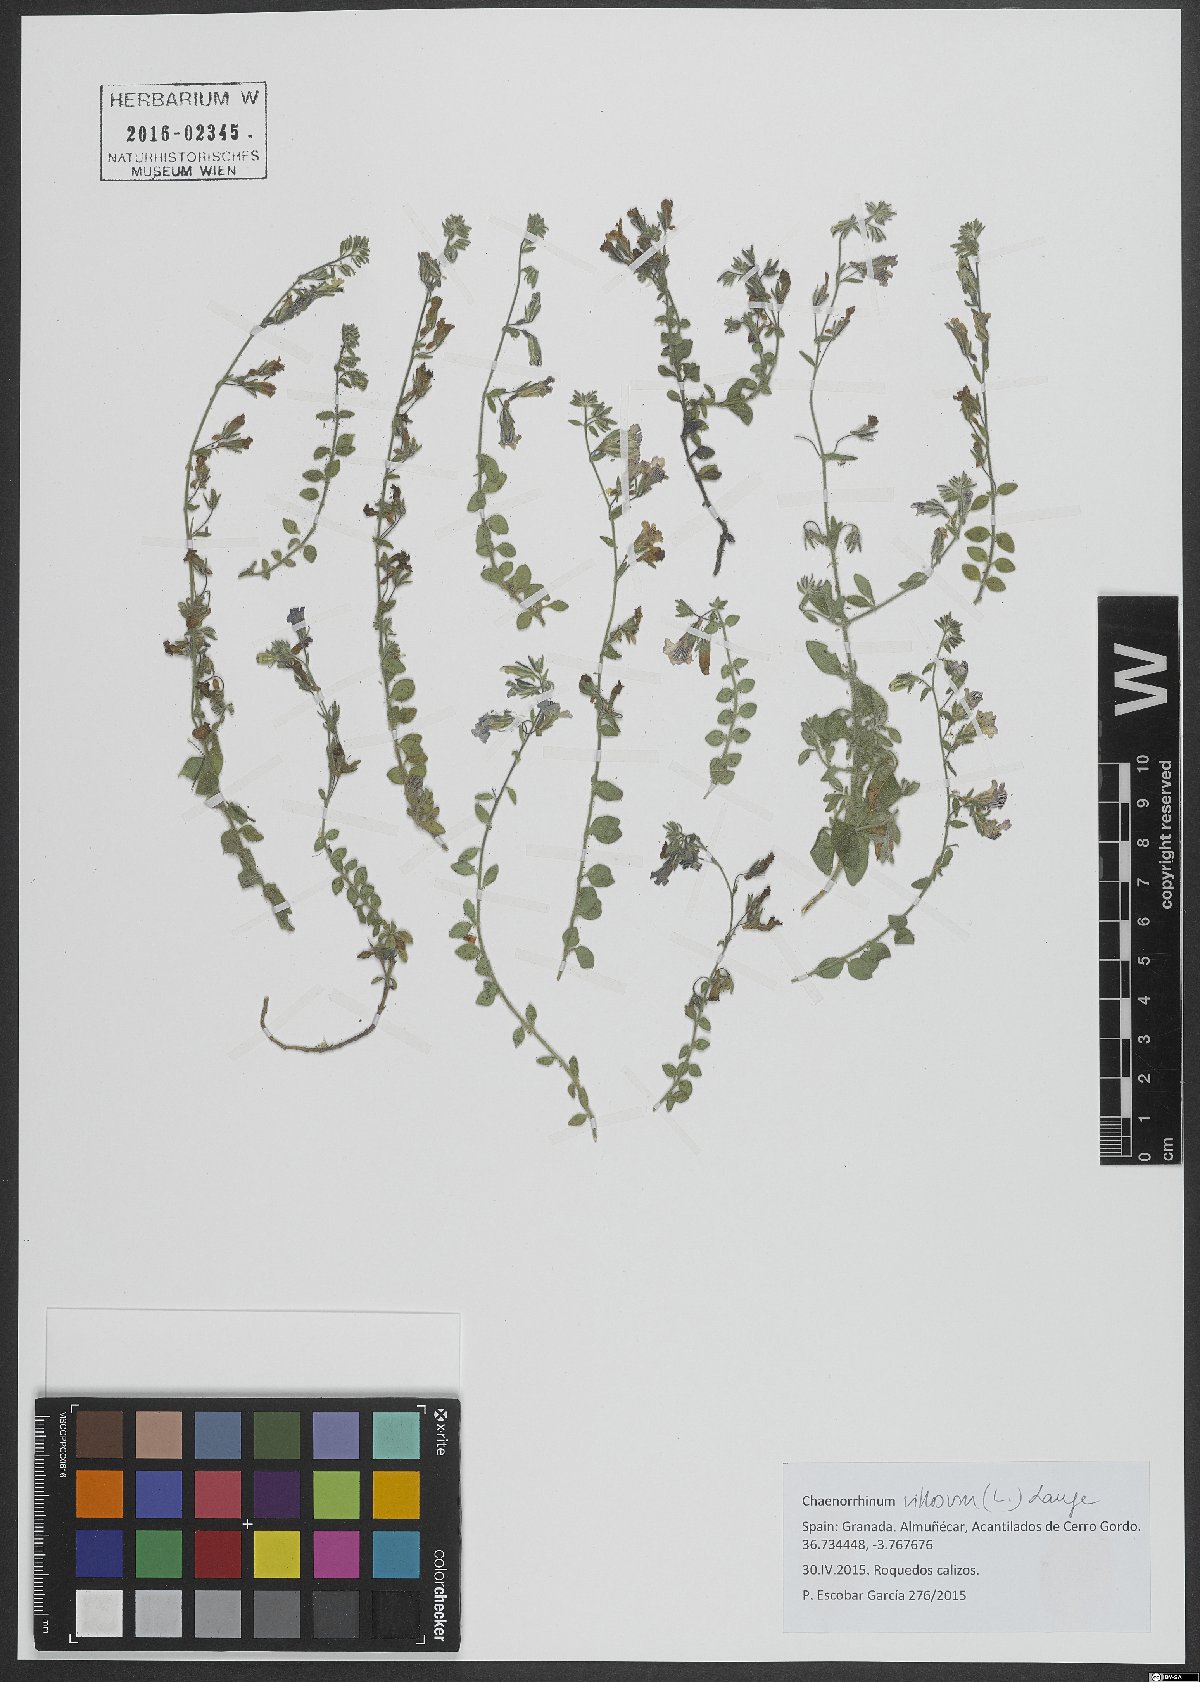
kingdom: Plantae
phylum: Tracheophyta
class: Magnoliopsida
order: Lamiales
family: Plantaginaceae
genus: Chaenorhinum
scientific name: Chaenorhinum villosum
